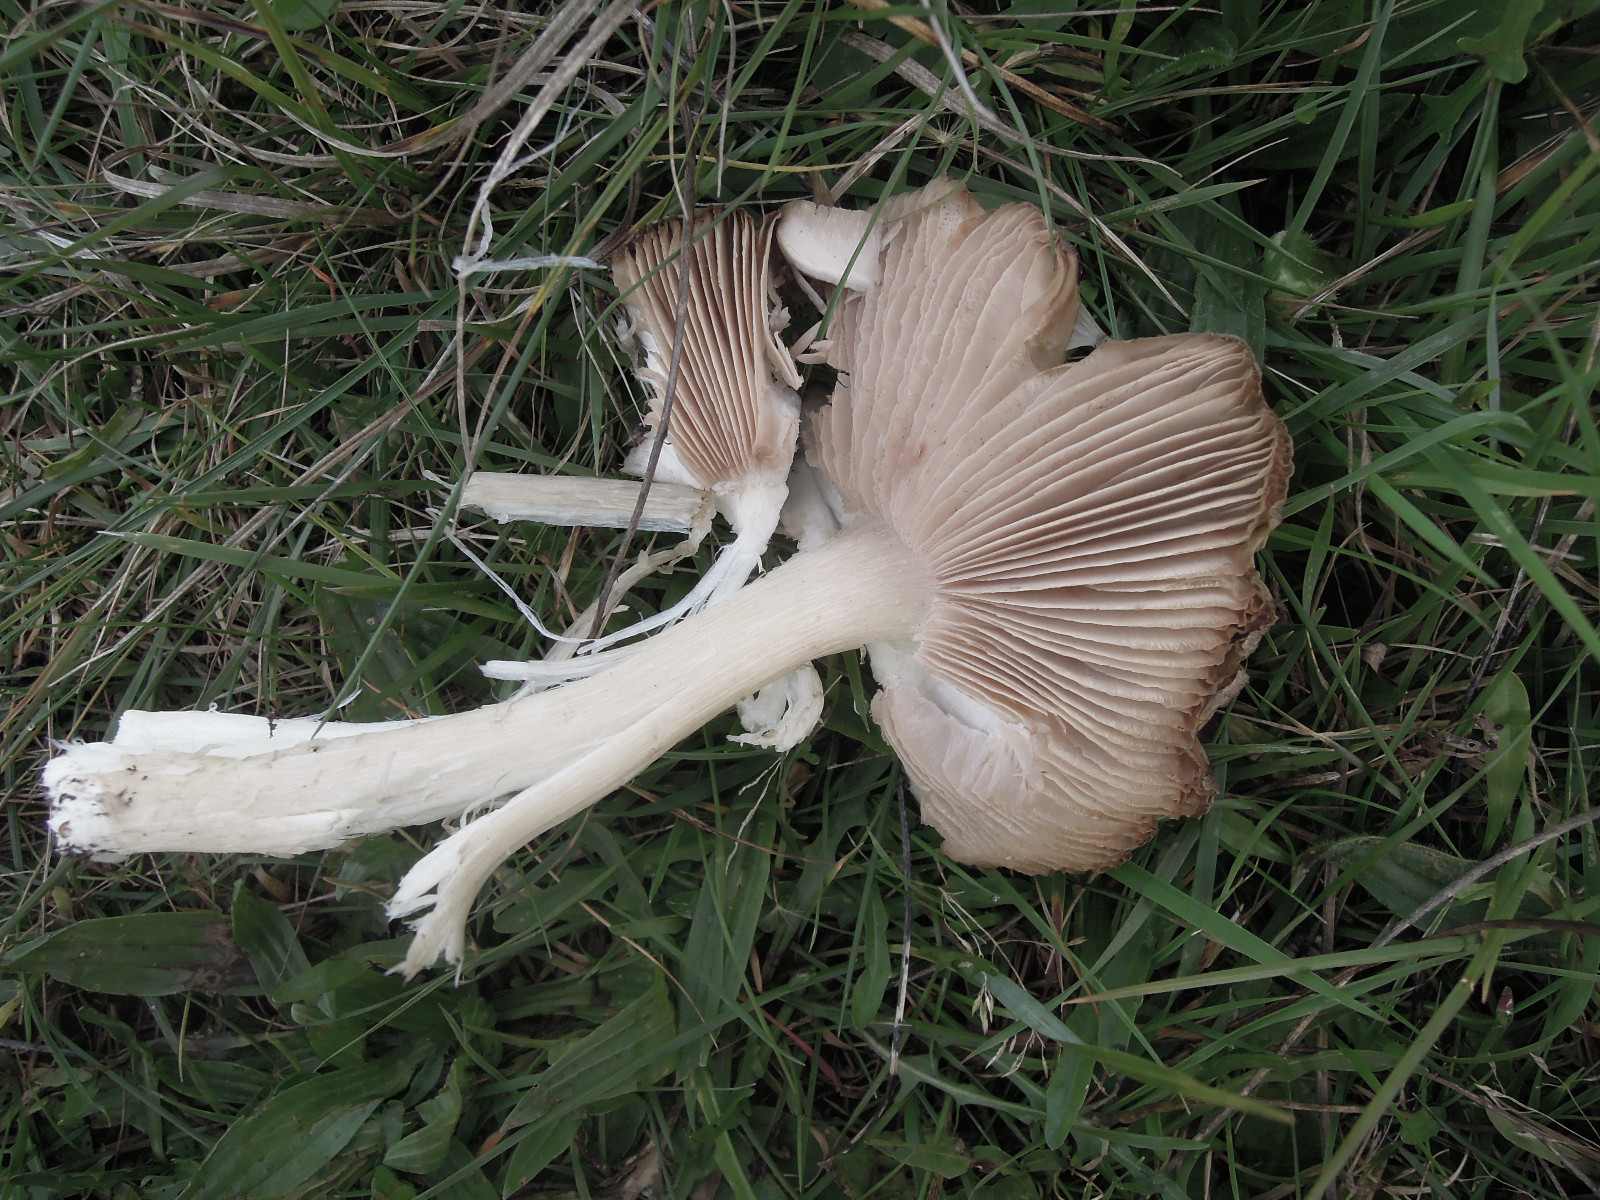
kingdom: Fungi
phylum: Basidiomycota
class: Agaricomycetes
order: Agaricales
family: Entolomataceae
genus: Entoloma
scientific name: Entoloma prunuloides
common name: mel-rødblad
